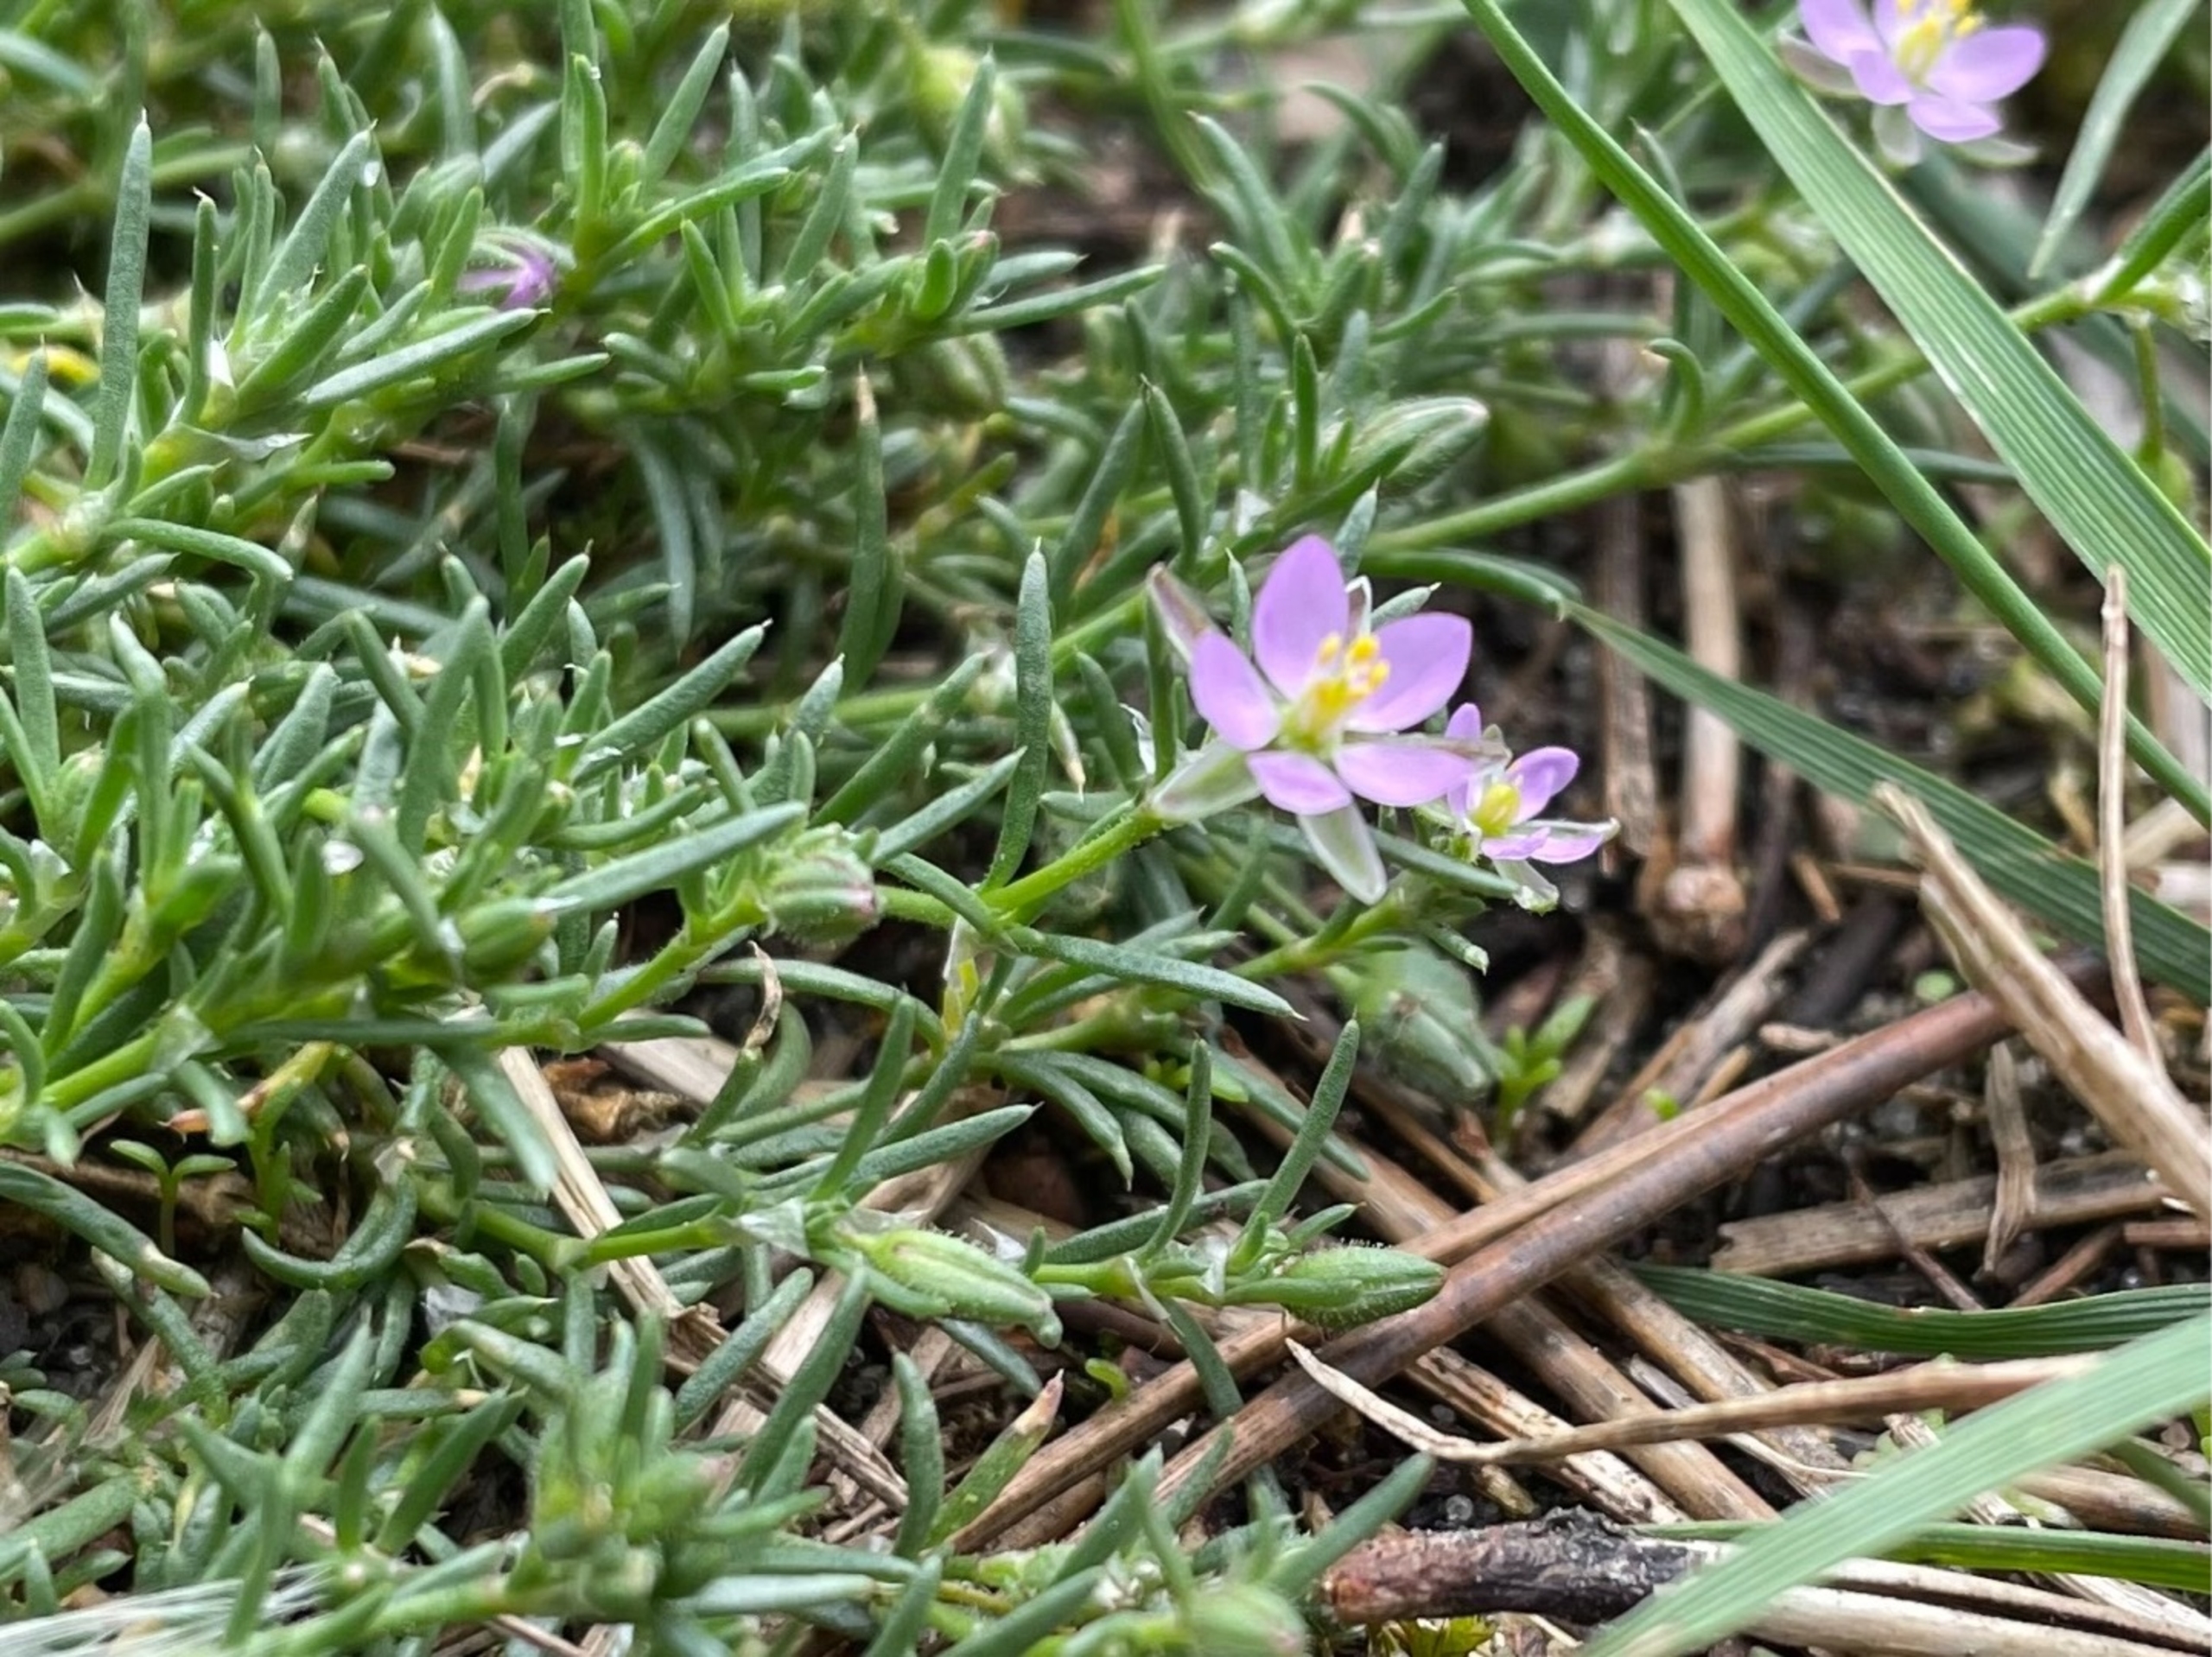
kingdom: Plantae
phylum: Tracheophyta
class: Magnoliopsida
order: Caryophyllales
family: Caryophyllaceae
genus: Spergularia
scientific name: Spergularia rubra
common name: Mark-hindeknæ
